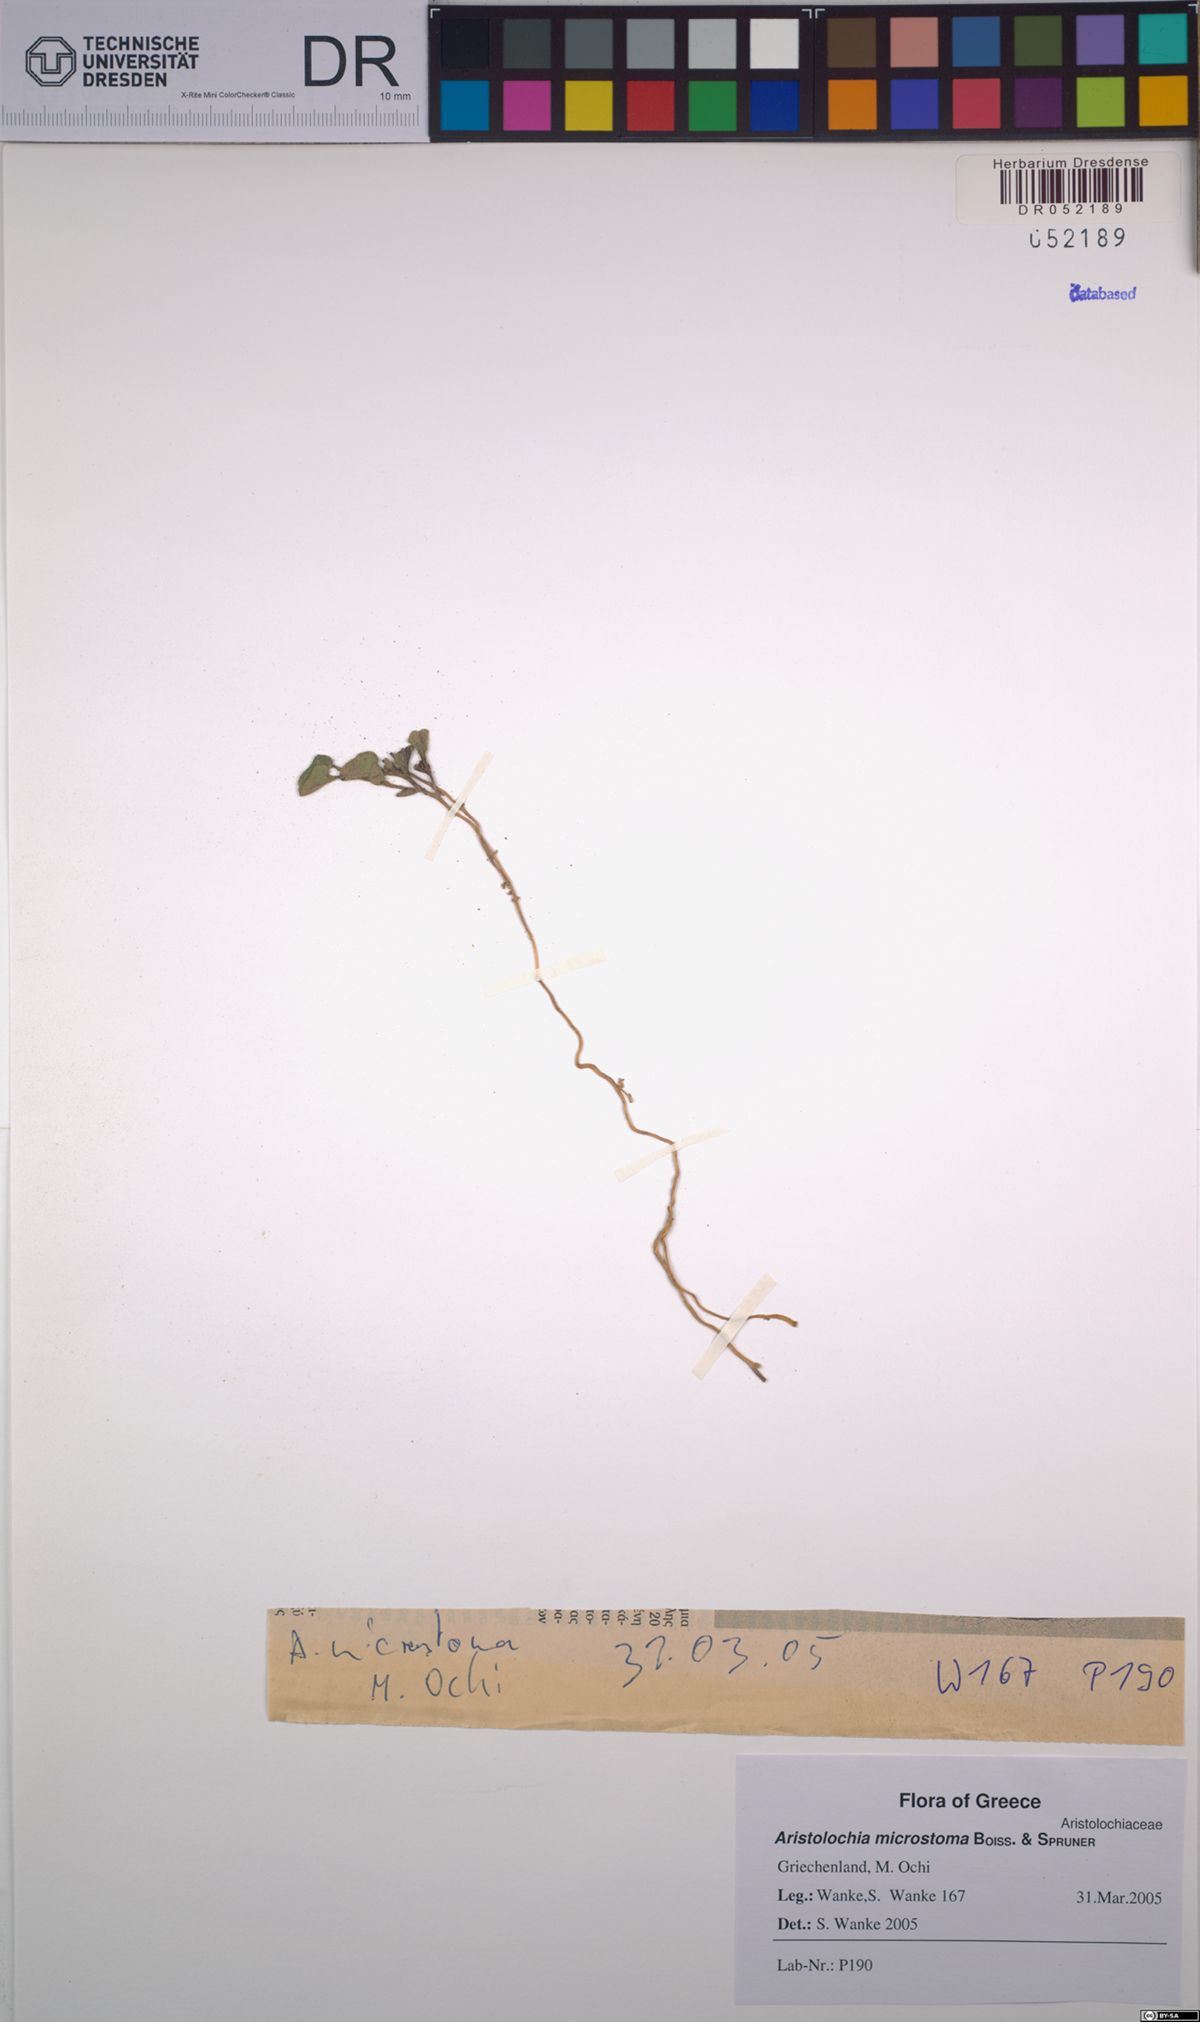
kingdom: Plantae
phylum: Tracheophyta
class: Magnoliopsida
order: Piperales
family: Aristolochiaceae
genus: Aristolochia
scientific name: Aristolochia microstoma
